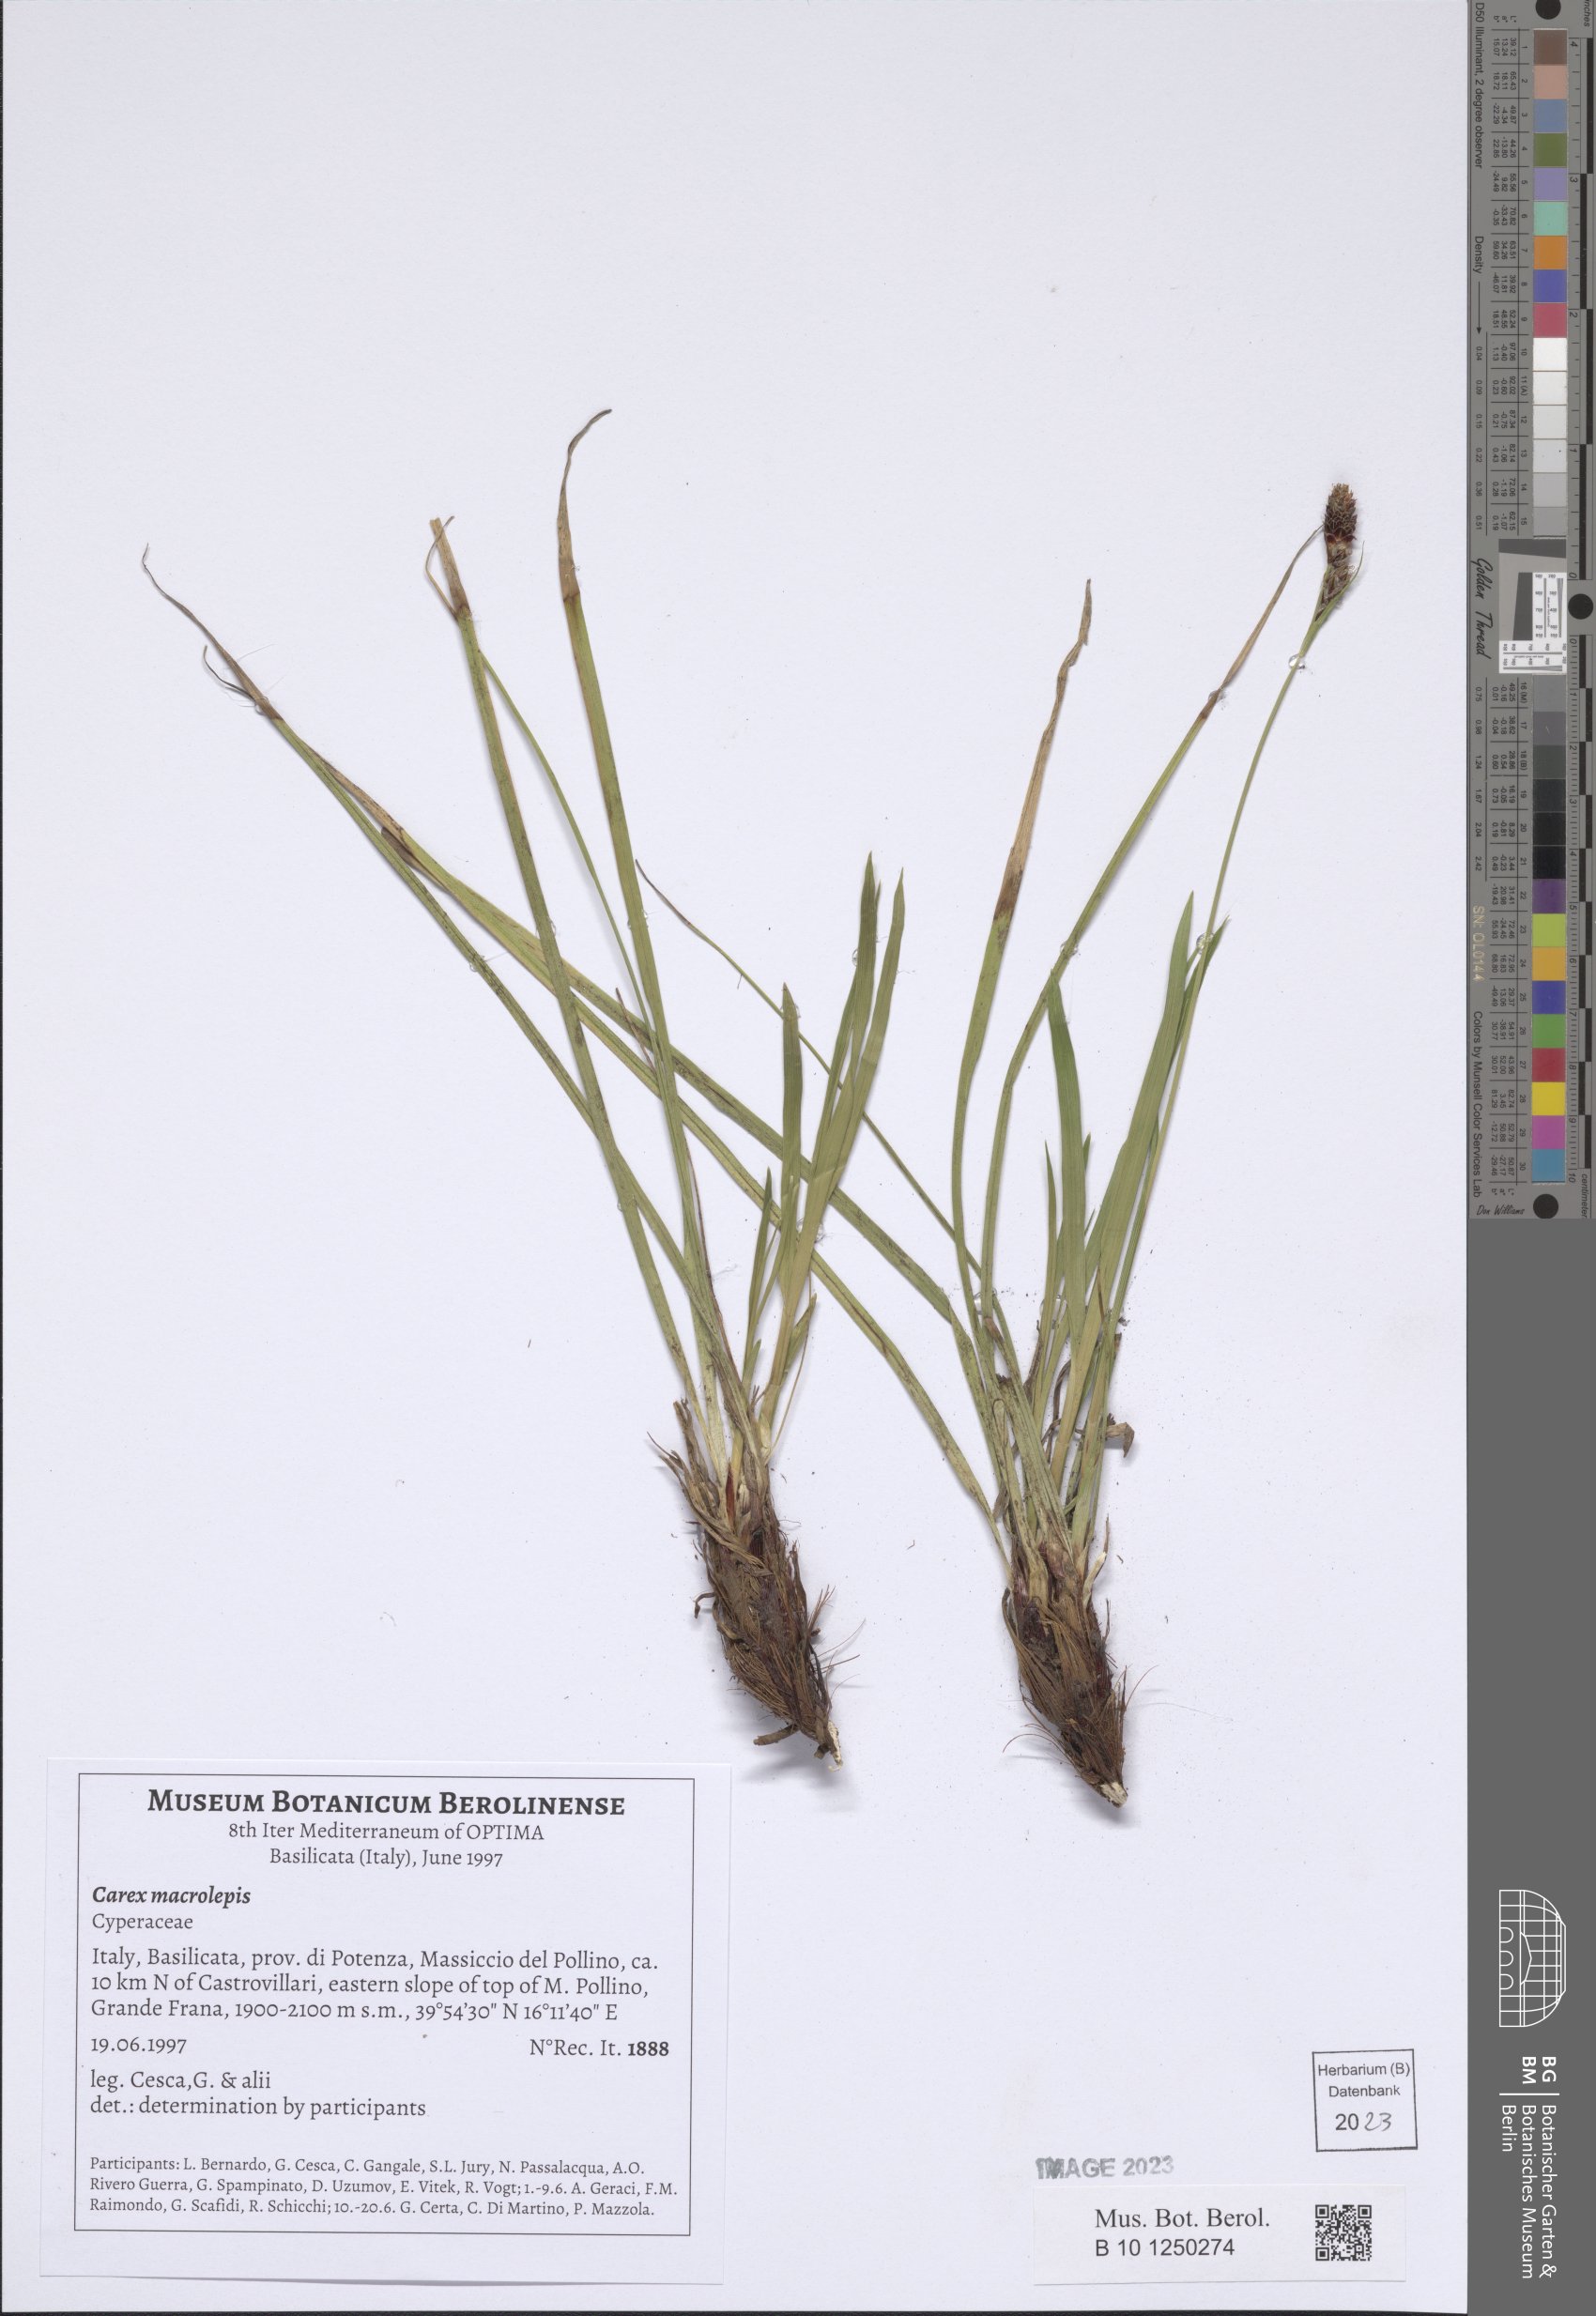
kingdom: Plantae
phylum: Tracheophyta
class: Liliopsida
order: Poales
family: Cyperaceae
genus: Carex
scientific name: Carex macrolepis
